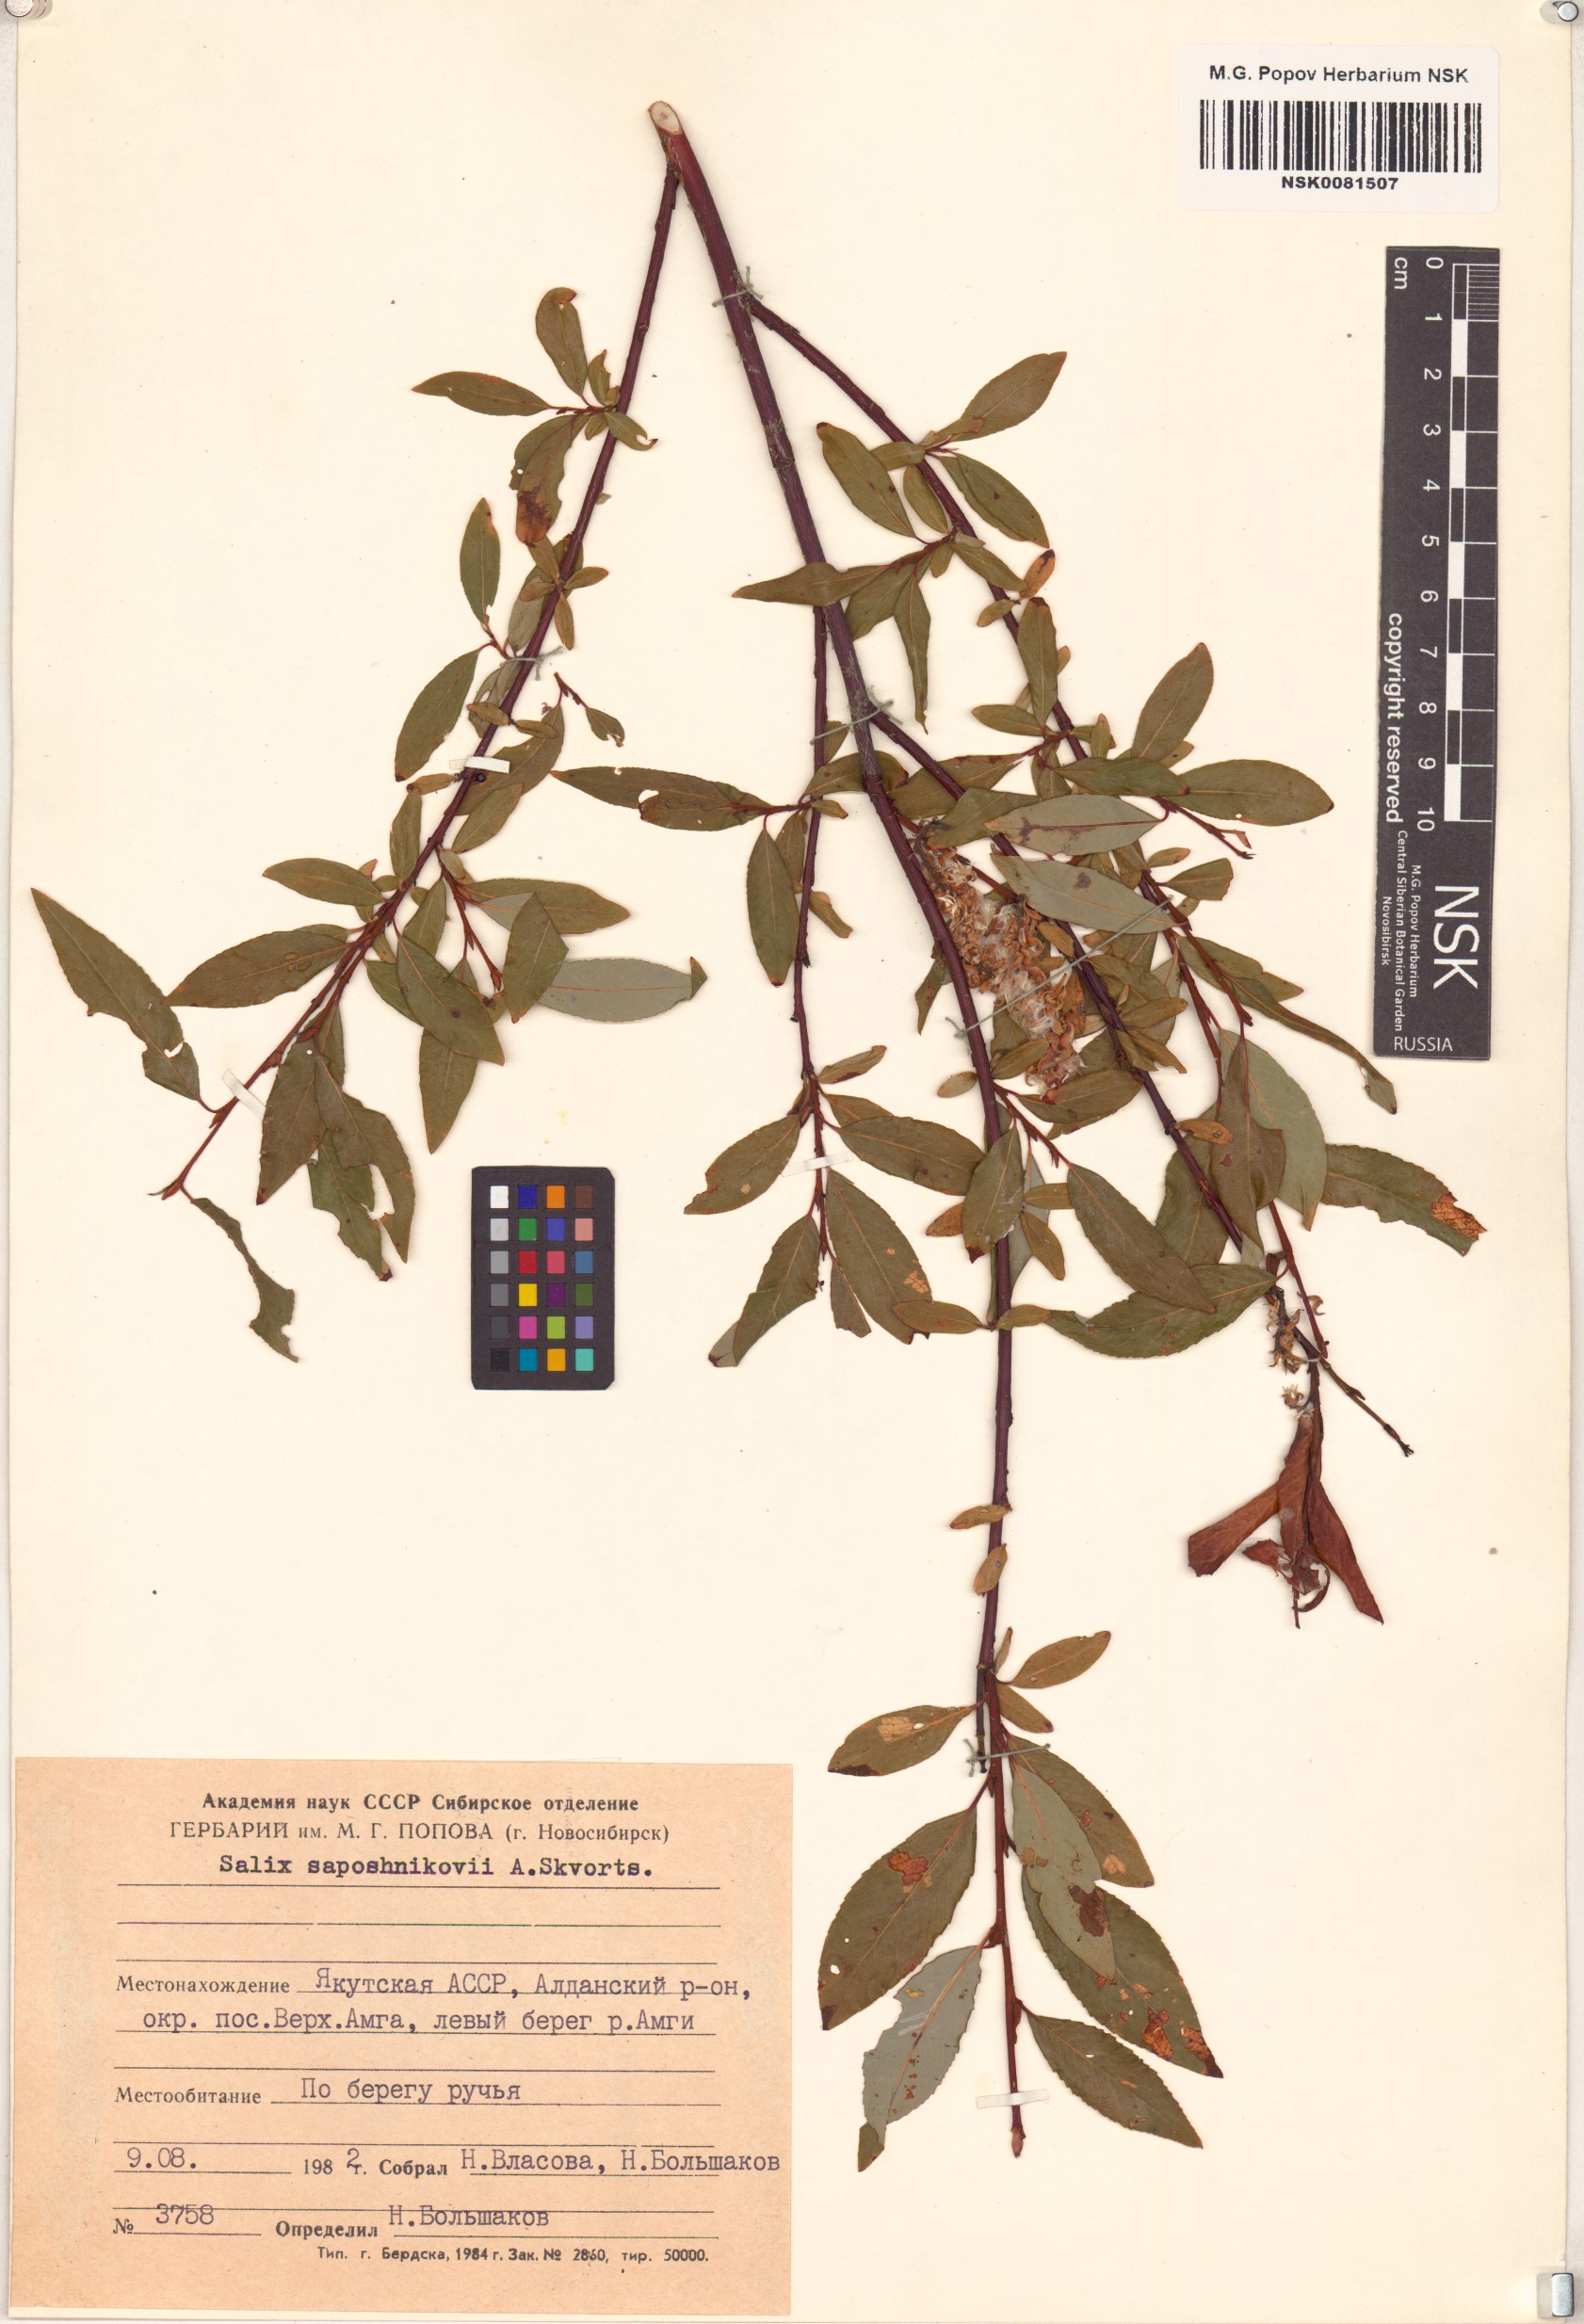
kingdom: Plantae
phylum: Tracheophyta
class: Magnoliopsida
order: Malpighiales
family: Salicaceae
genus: Salix
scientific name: Salix saposhnikovii
